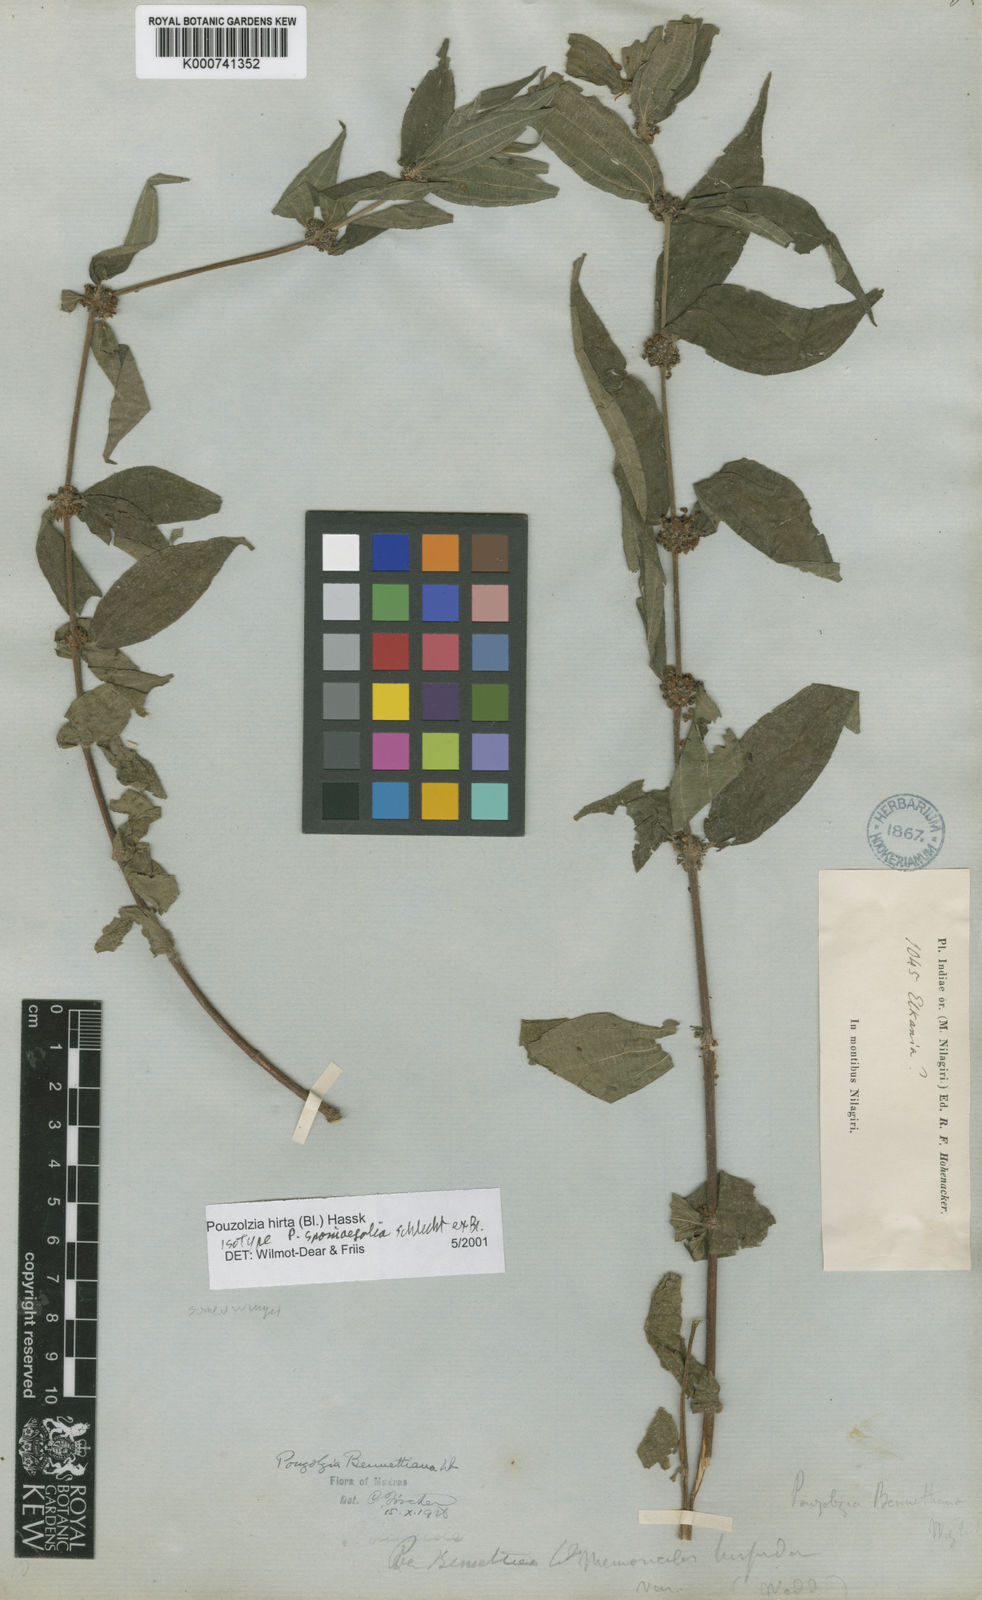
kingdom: Plantae
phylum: Tracheophyta
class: Magnoliopsida
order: Rosales
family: Urticaceae
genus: Gonostegia
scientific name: Gonostegia triandra
